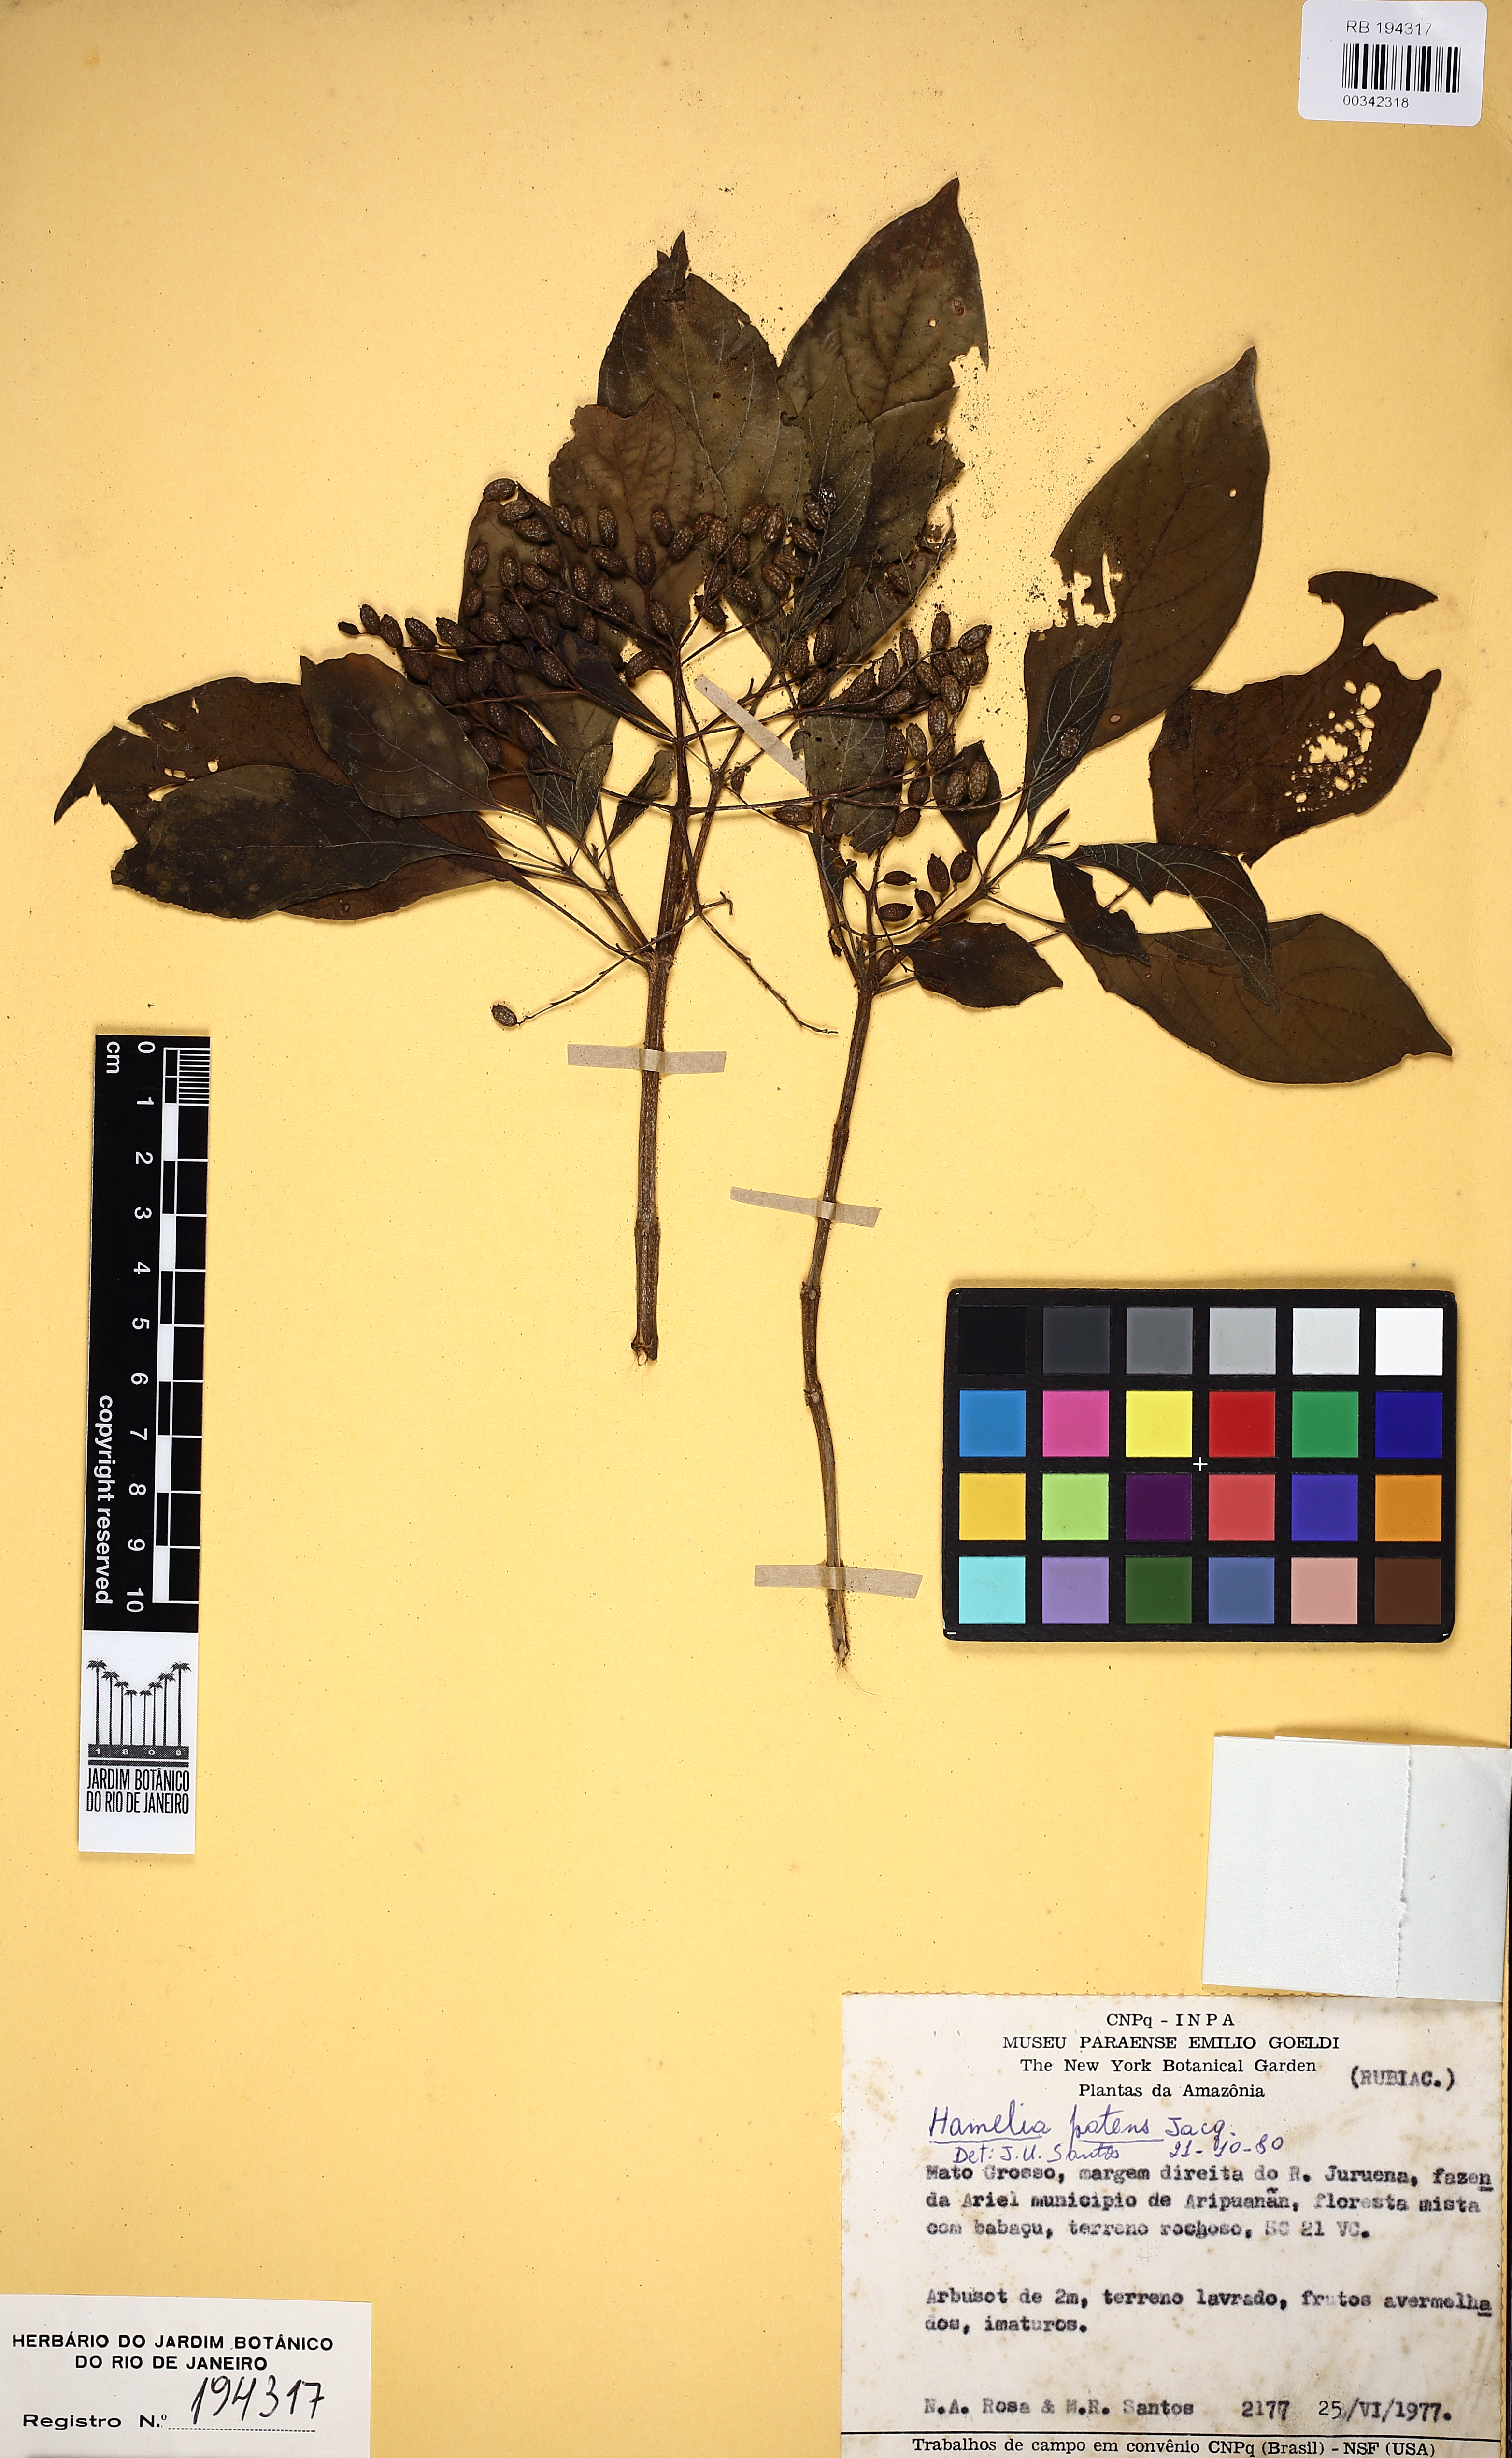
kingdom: Plantae
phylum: Tracheophyta
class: Magnoliopsida
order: Gentianales
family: Rubiaceae
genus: Hamelia
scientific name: Hamelia patens
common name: Redhead
